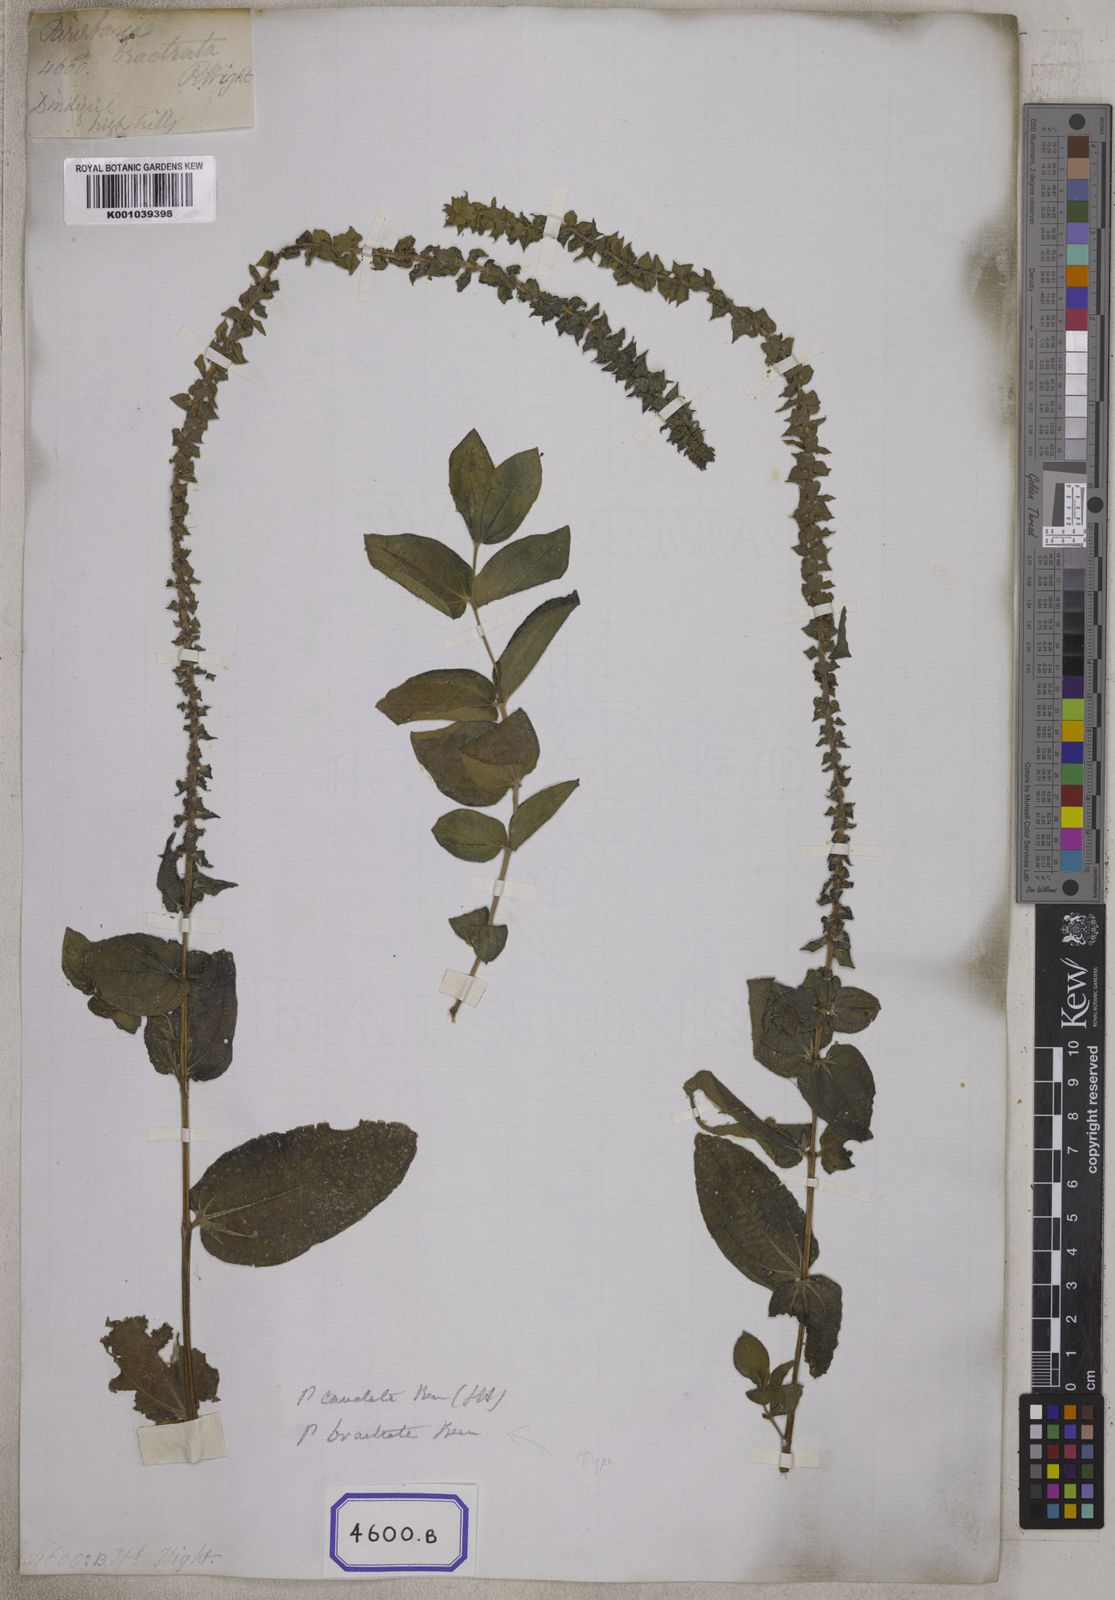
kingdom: Plantae
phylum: Tracheophyta
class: Magnoliopsida
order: Rosales
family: Urticaceae
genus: Gonostegia
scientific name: Gonostegia pentandra
